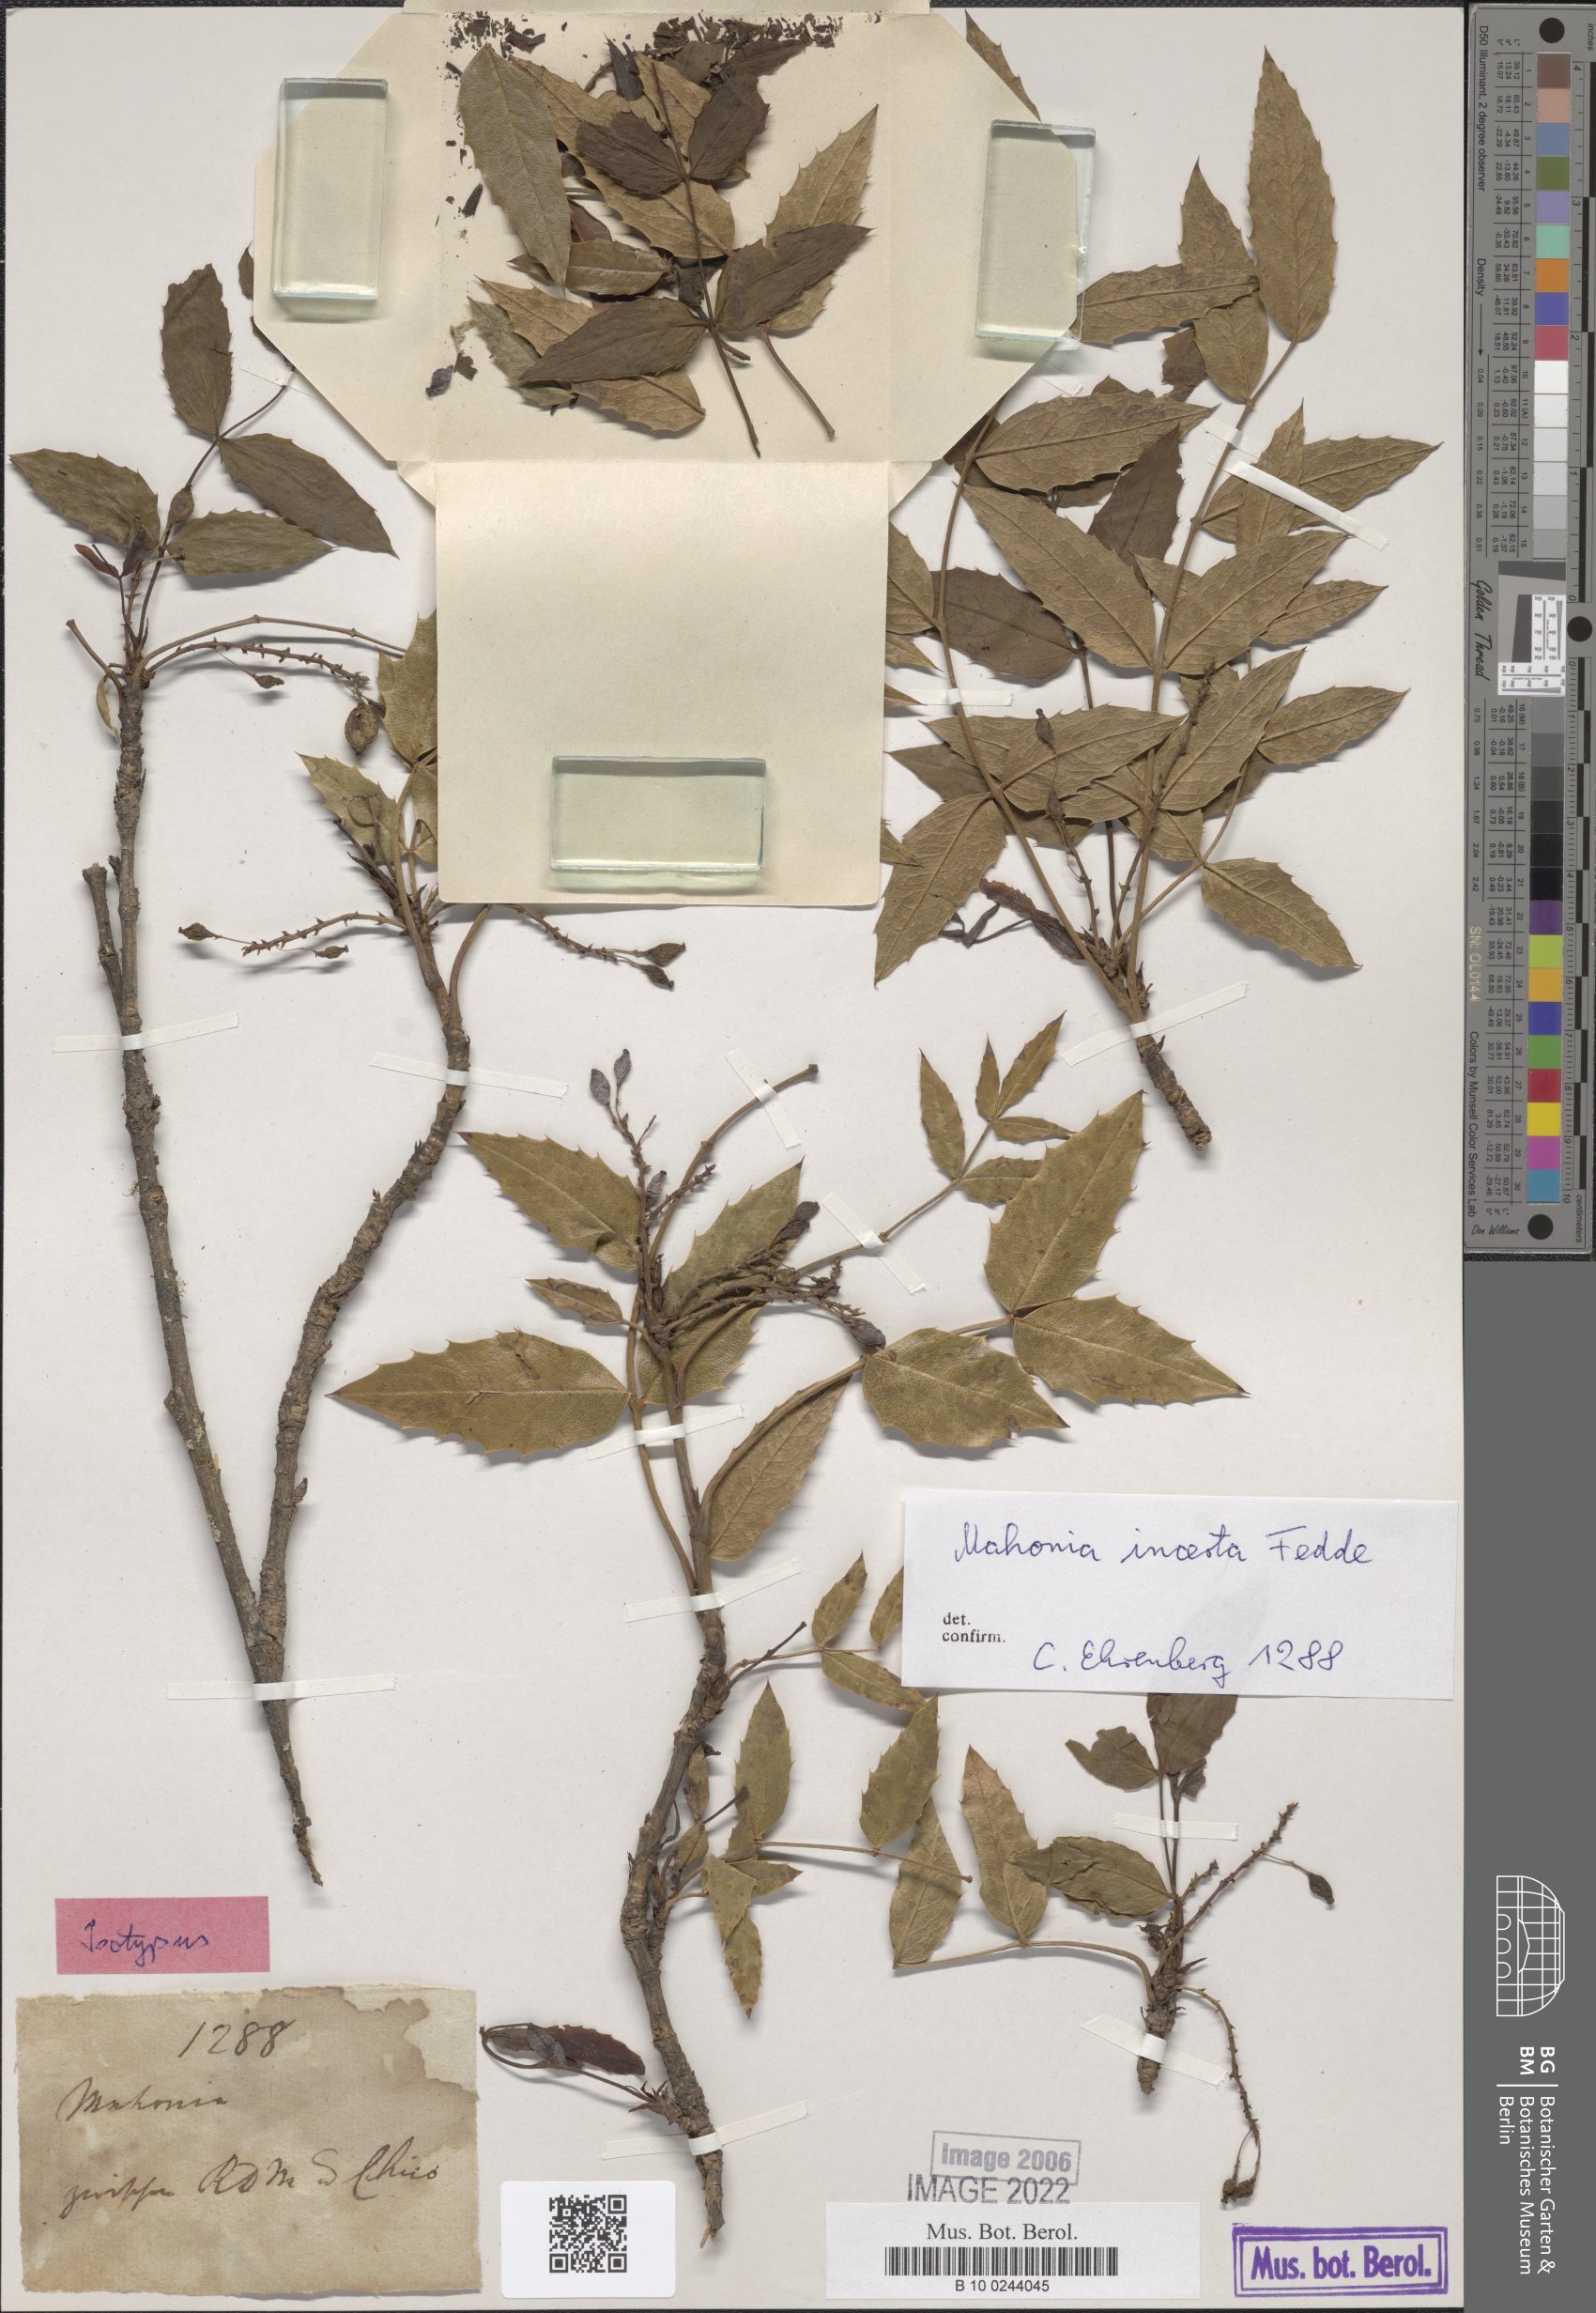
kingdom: Plantae
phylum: Tracheophyta
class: Magnoliopsida
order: Ranunculales
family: Berberidaceae
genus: Mahonia
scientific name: Mahonia incerta
